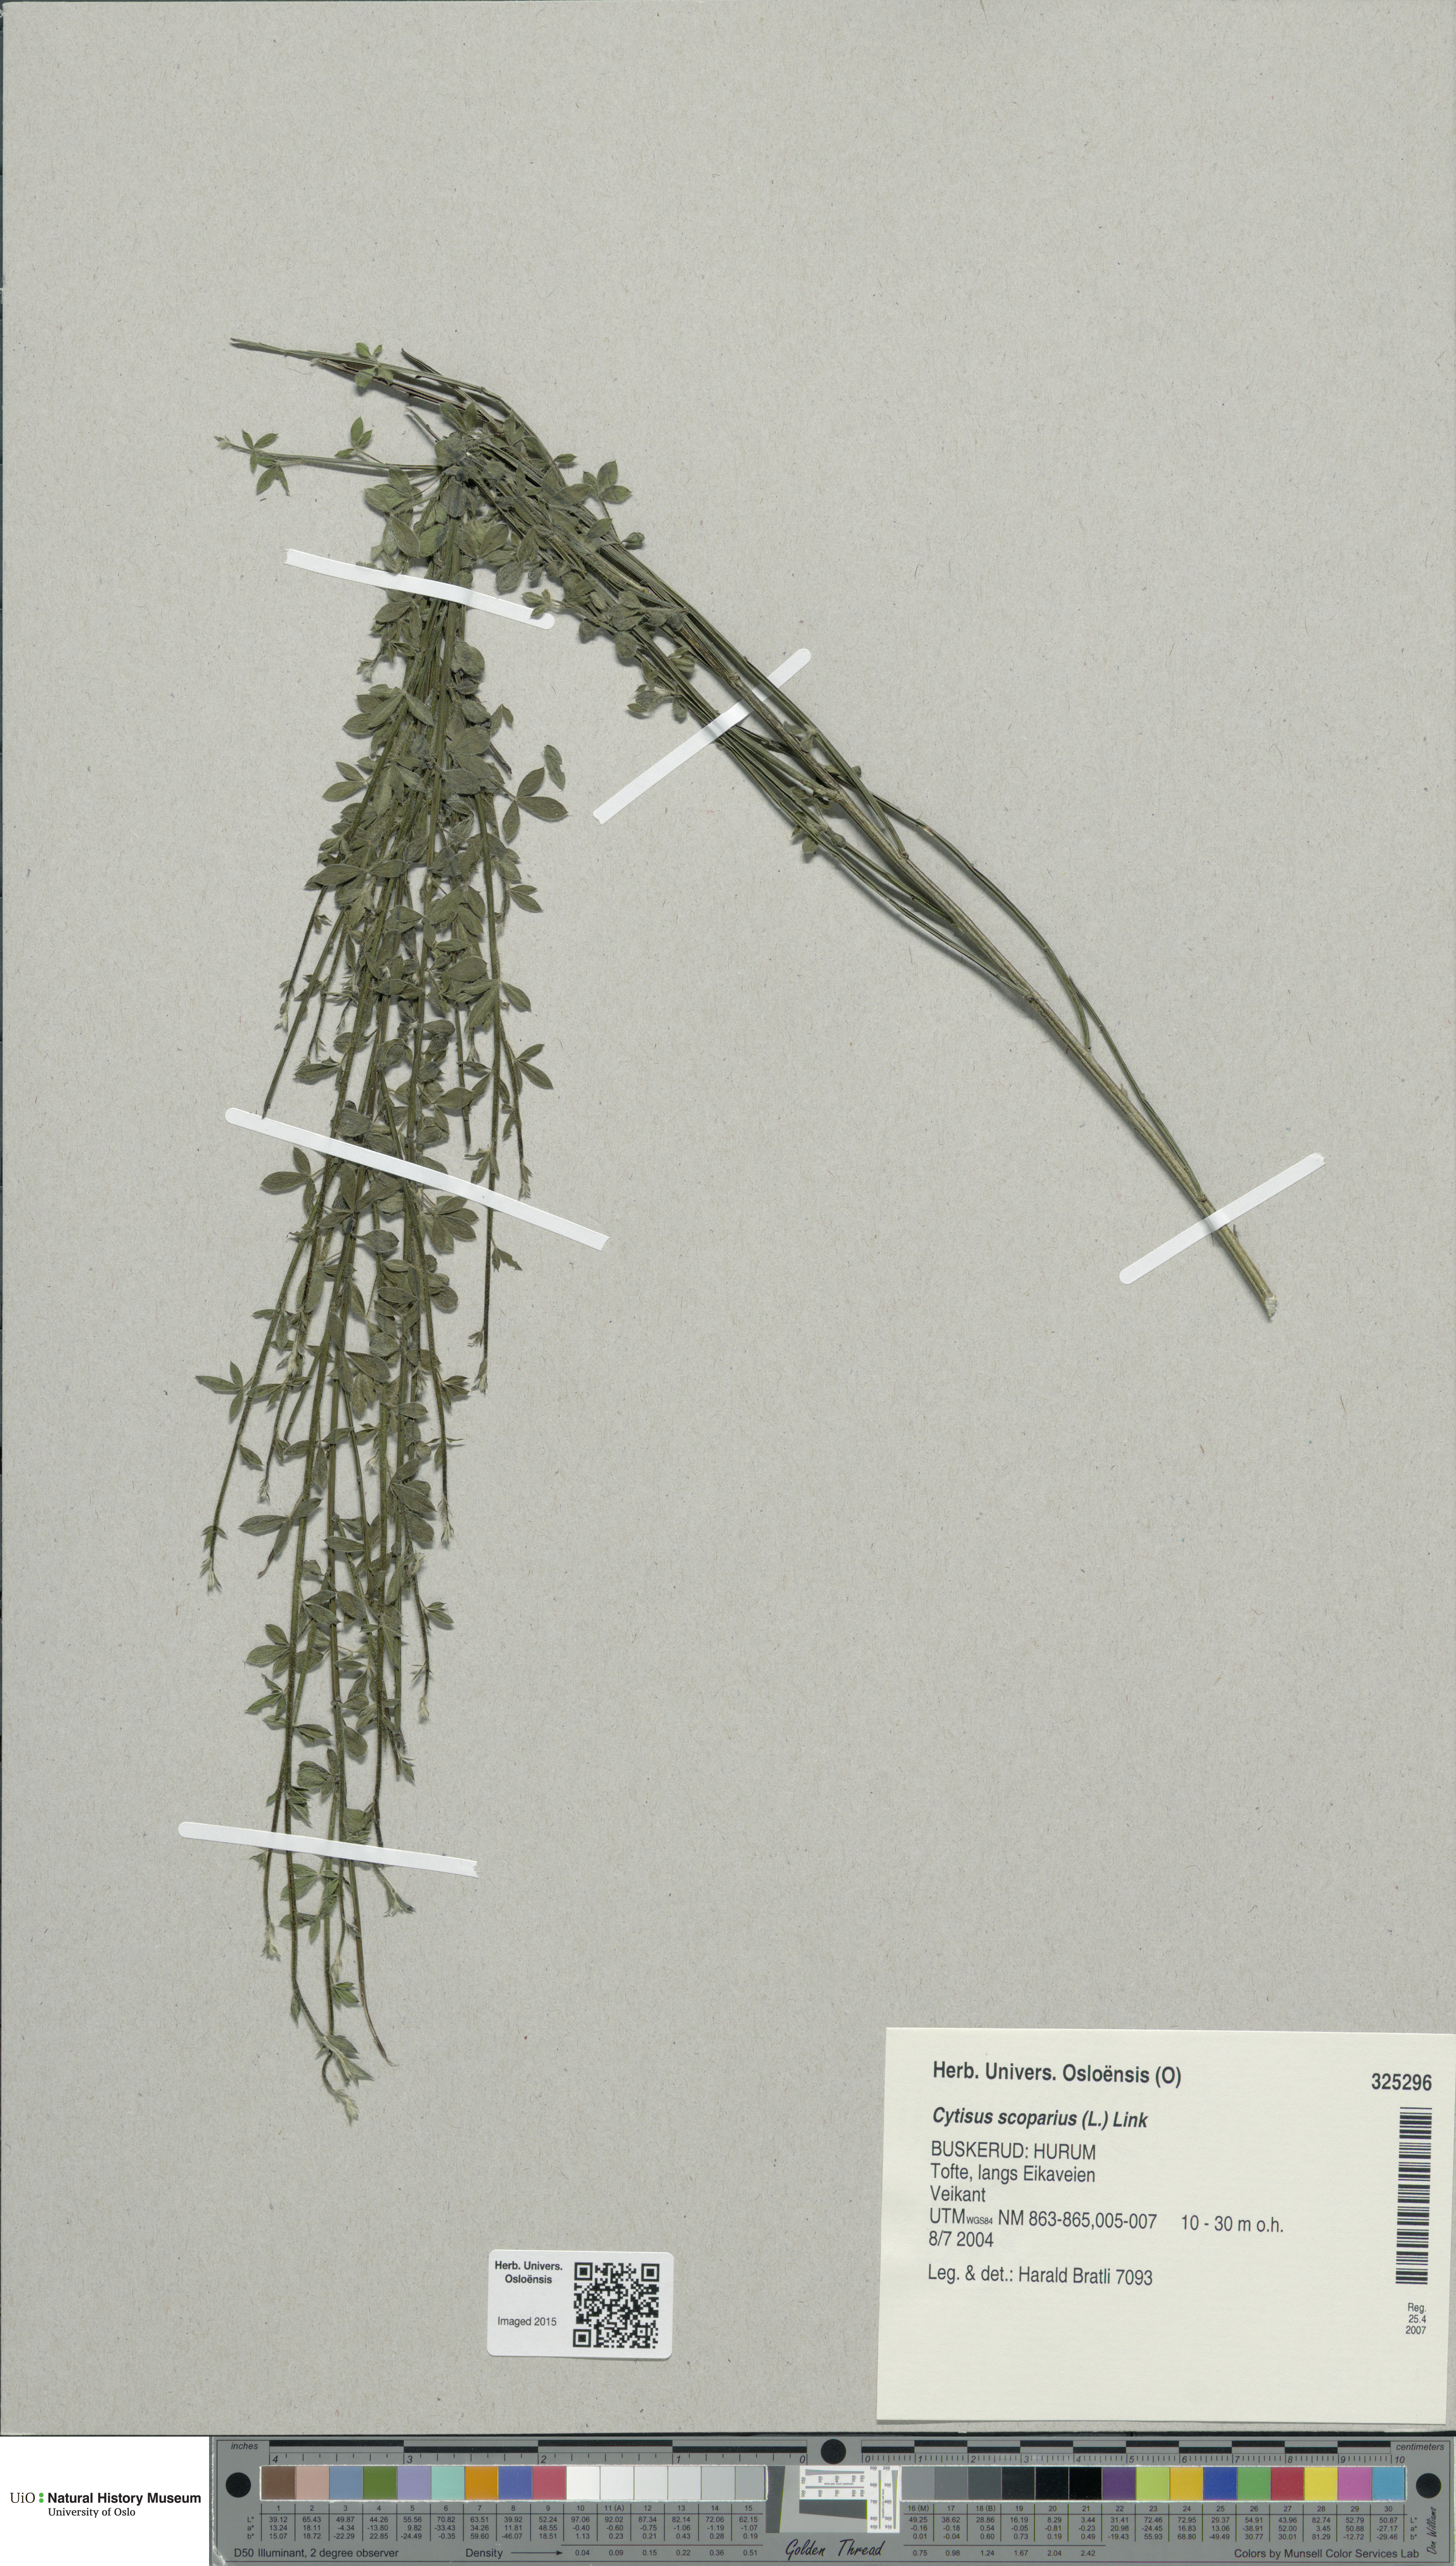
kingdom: Plantae
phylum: Tracheophyta
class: Magnoliopsida
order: Fabales
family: Fabaceae
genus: Cytisus
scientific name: Cytisus scoparius
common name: Scotch broom
